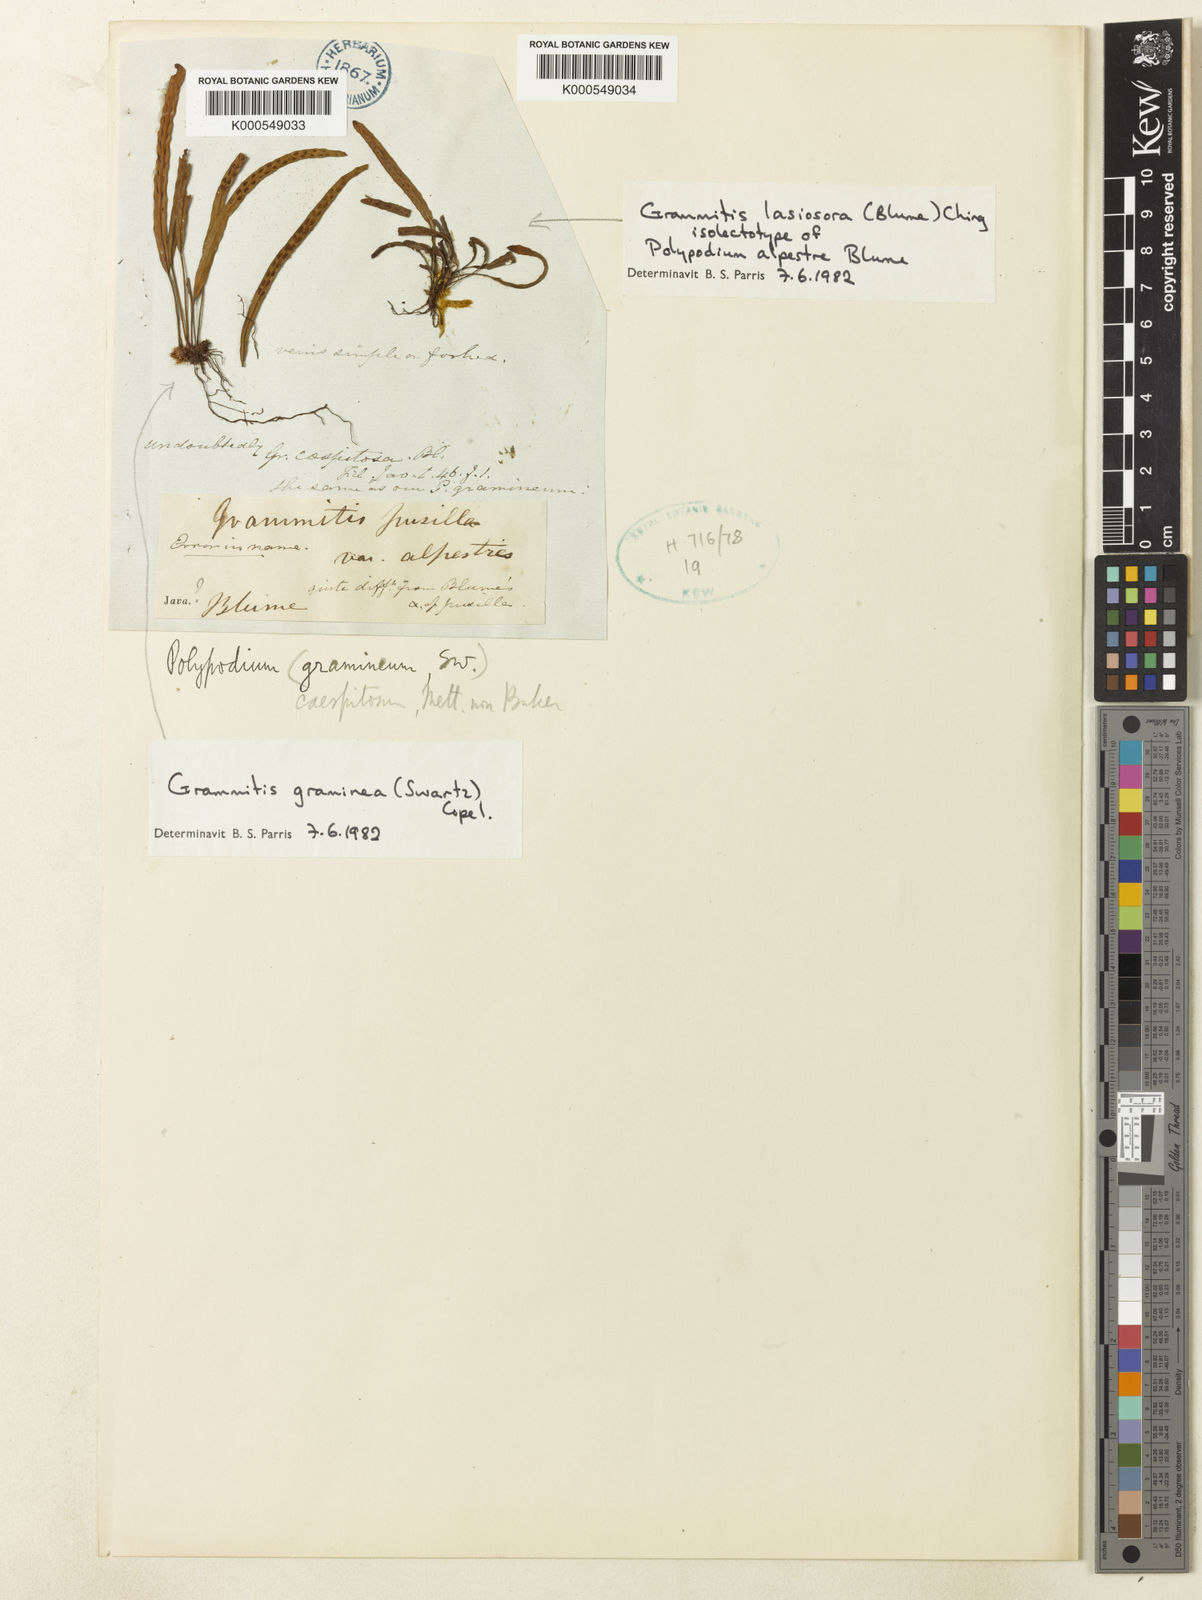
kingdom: Plantae
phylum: Tracheophyta
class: Polypodiopsida
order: Polypodiales
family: Polypodiaceae
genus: Oreogrammitis
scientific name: Oreogrammitis multifolia
